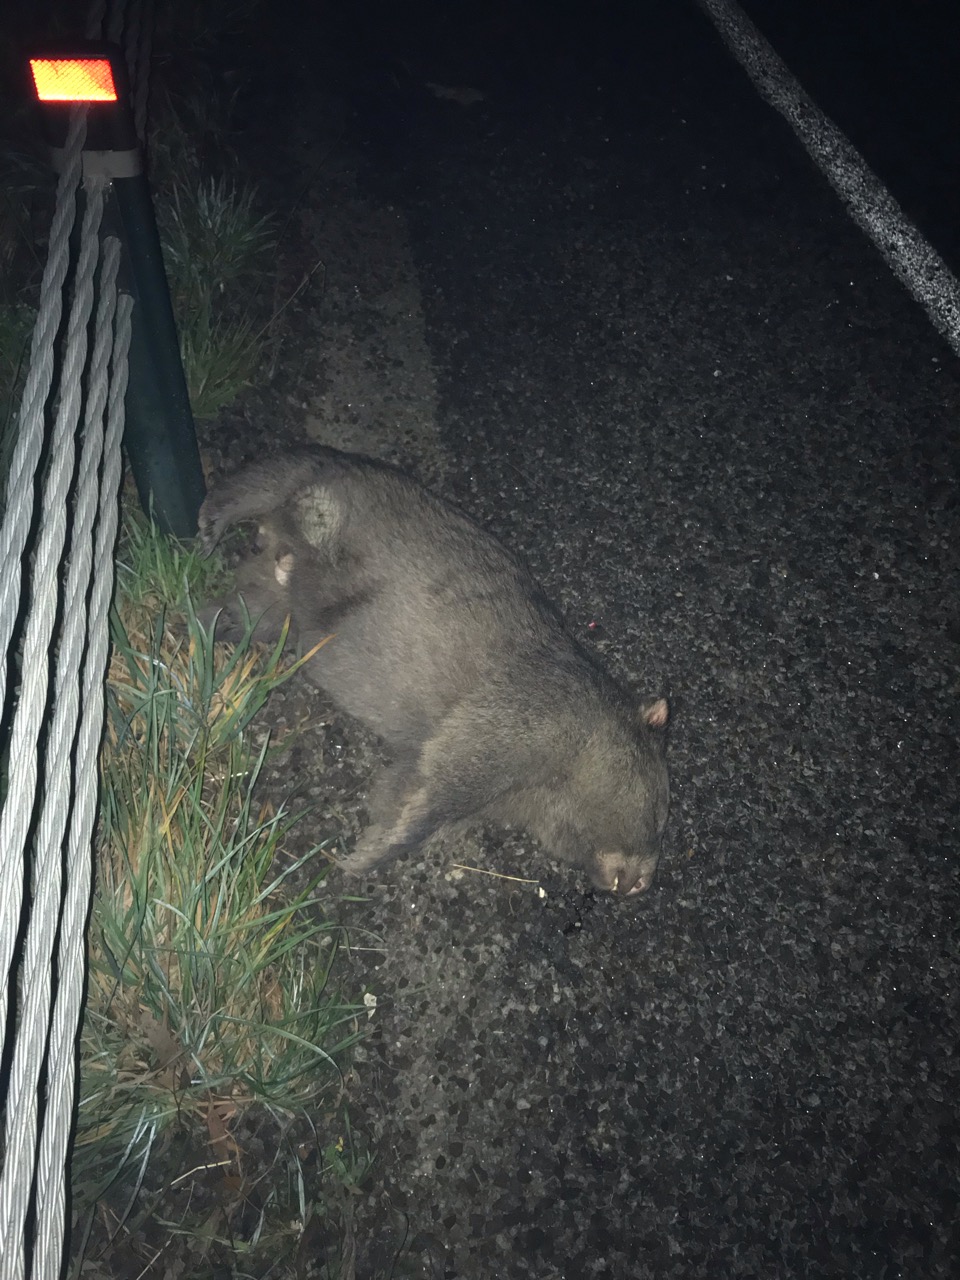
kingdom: Animalia
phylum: Chordata
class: Mammalia
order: Diprotodontia
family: Vombatidae
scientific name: Vombatidae
